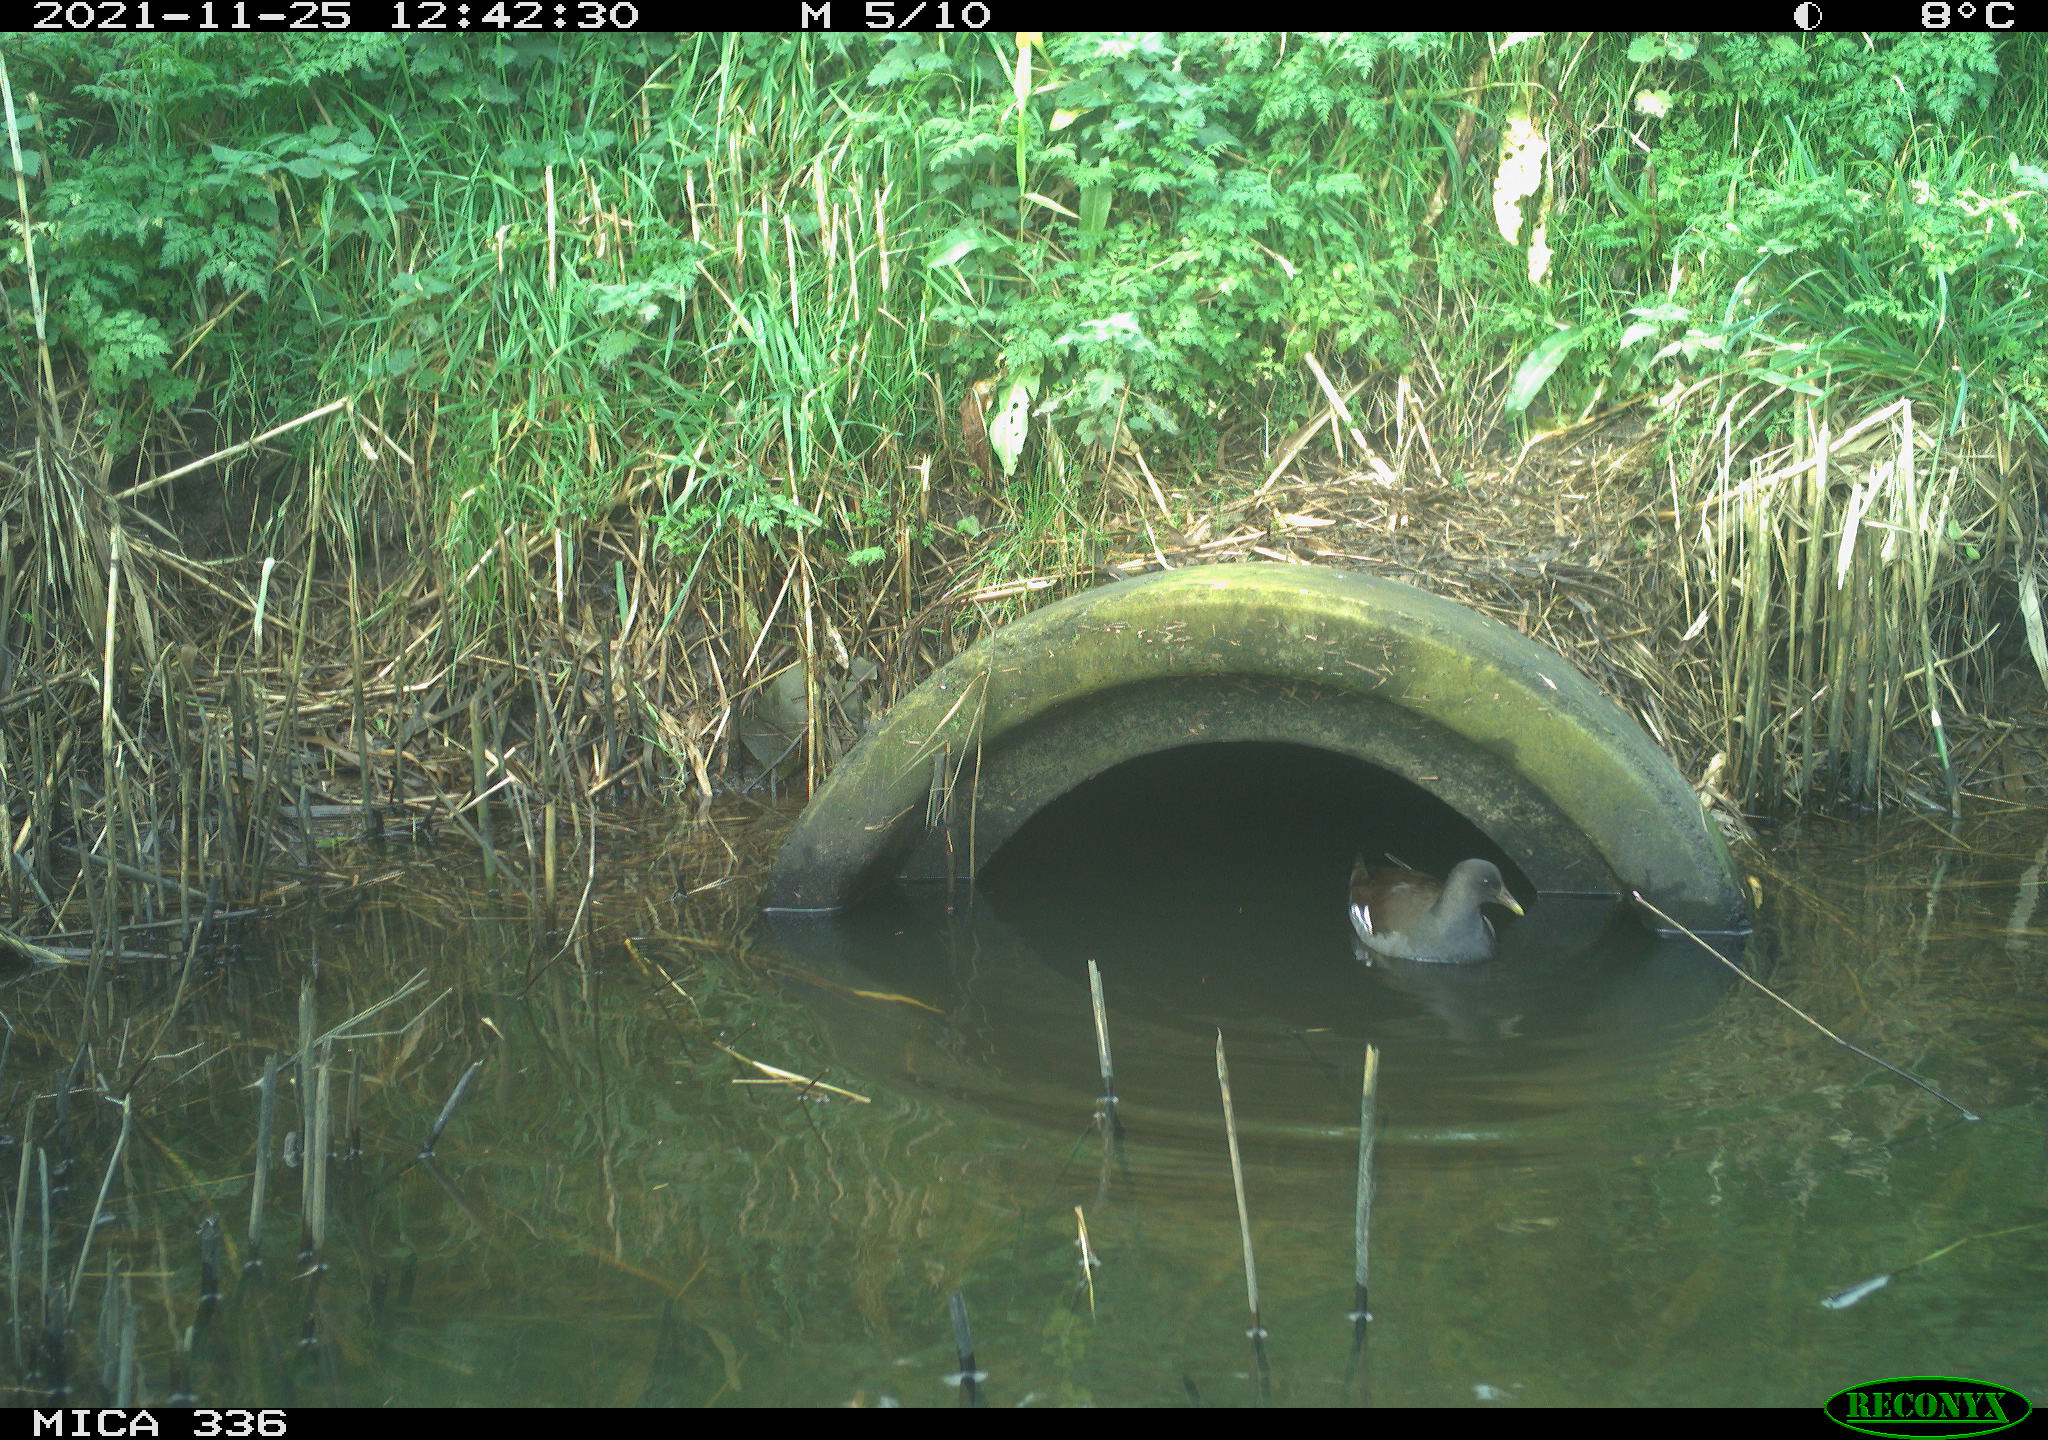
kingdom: Animalia
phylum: Chordata
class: Aves
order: Gruiformes
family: Rallidae
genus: Gallinula
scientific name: Gallinula chloropus
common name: Common moorhen
